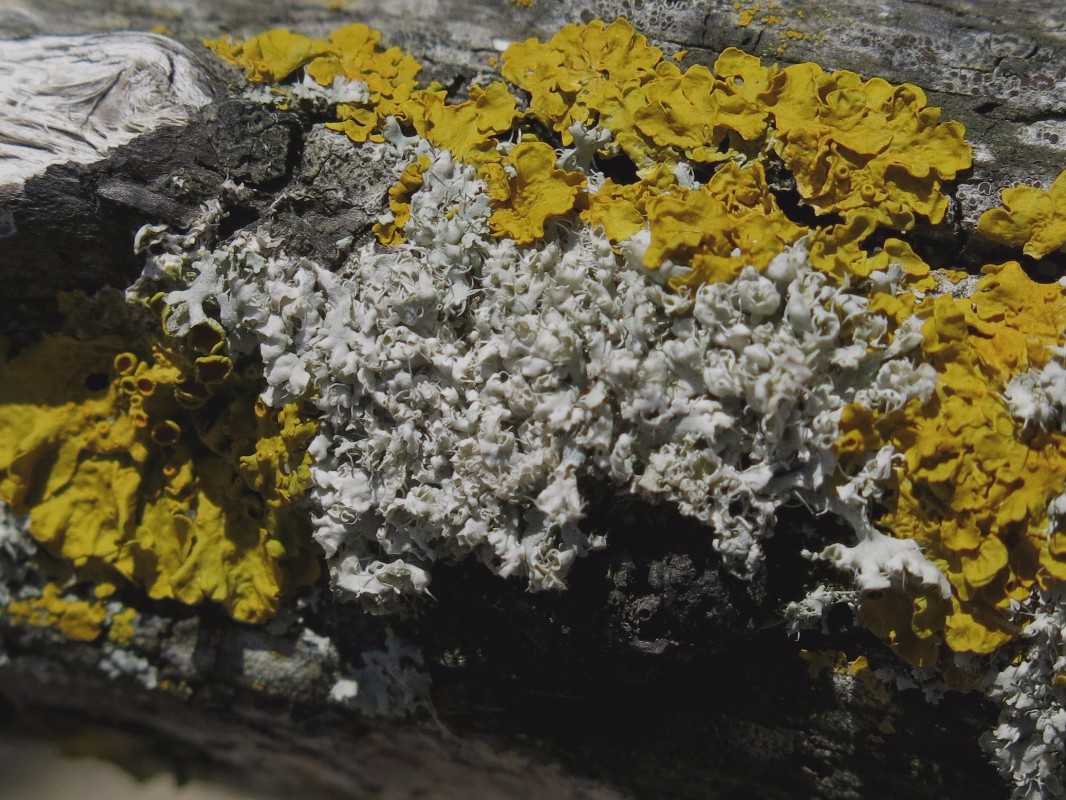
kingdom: Fungi
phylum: Ascomycota
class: Lecanoromycetes
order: Caliciales
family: Physciaceae
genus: Physcia
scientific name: Physcia adscendens
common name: hætte-rosetlav
